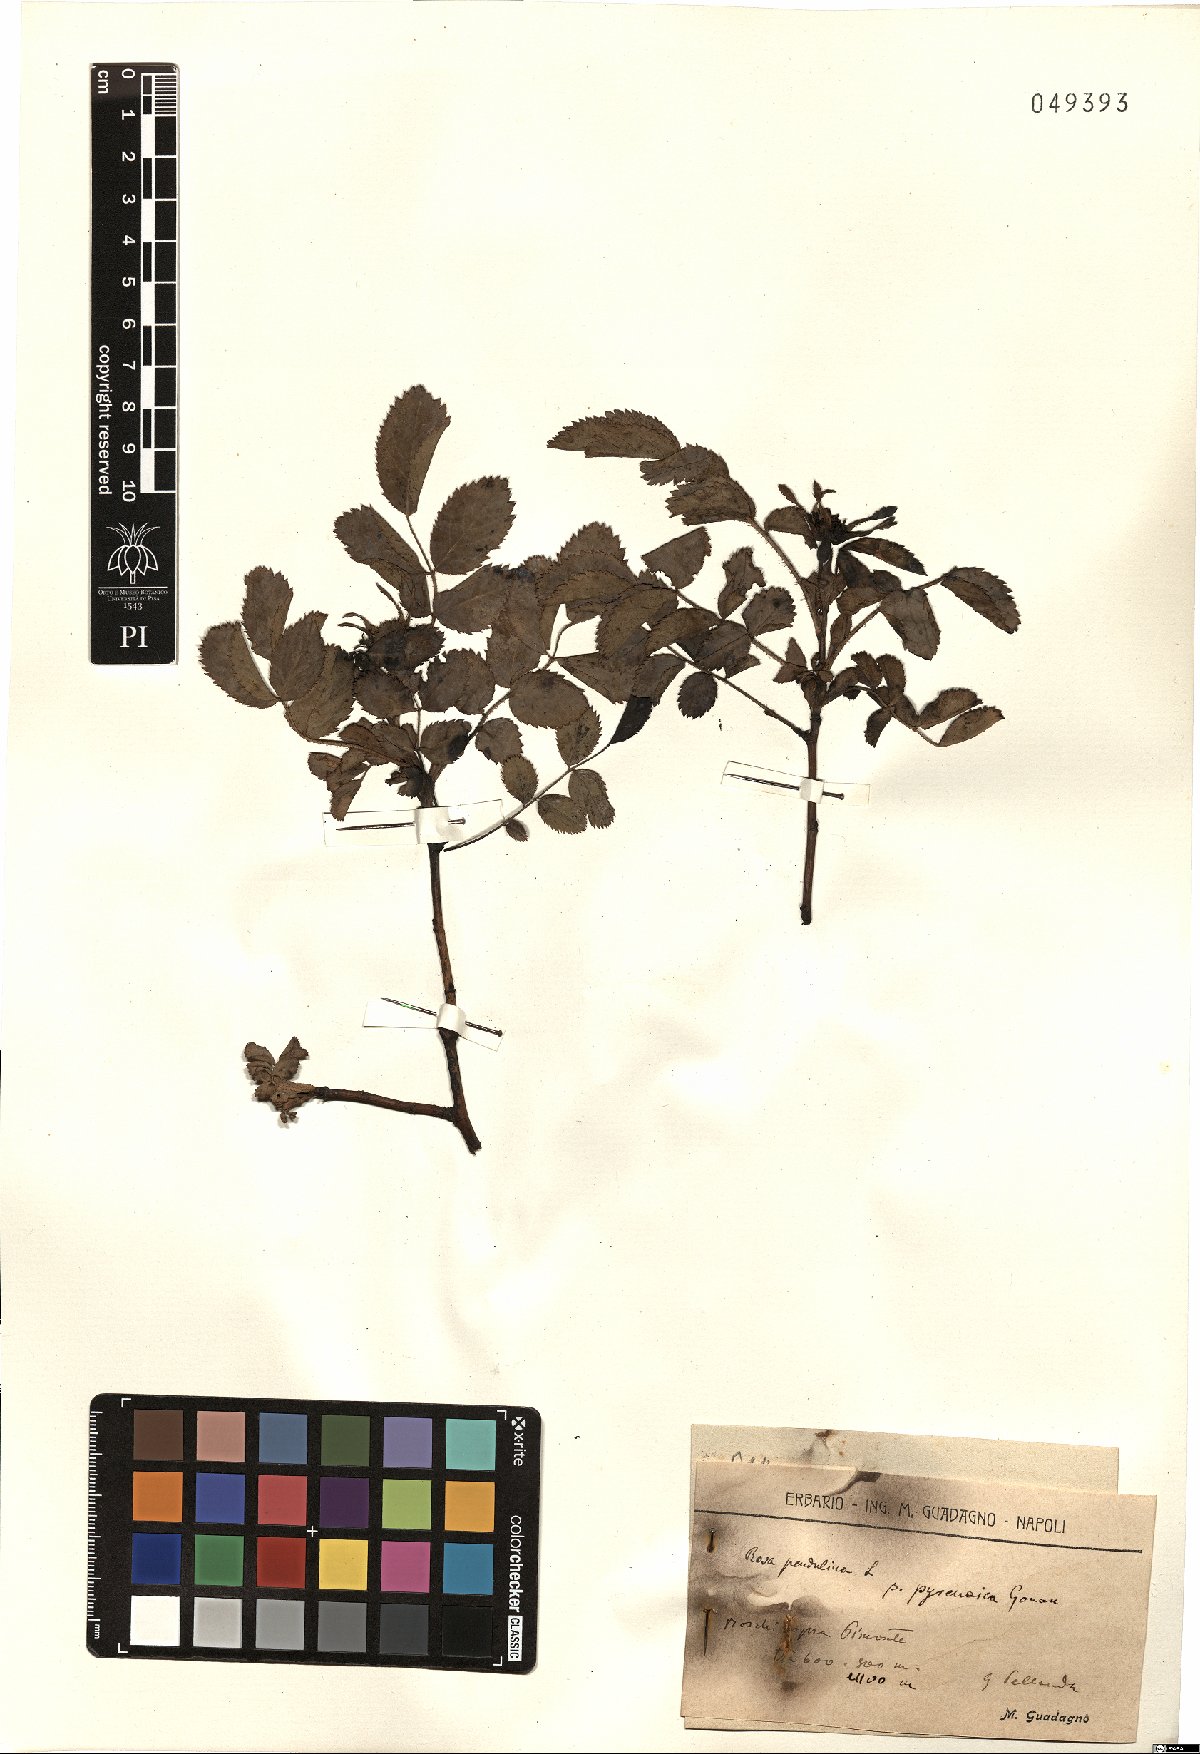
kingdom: Plantae
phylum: Tracheophyta
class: Magnoliopsida
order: Rosales
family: Rosaceae
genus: Rosa
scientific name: Rosa pendulina
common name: Alpine rose
